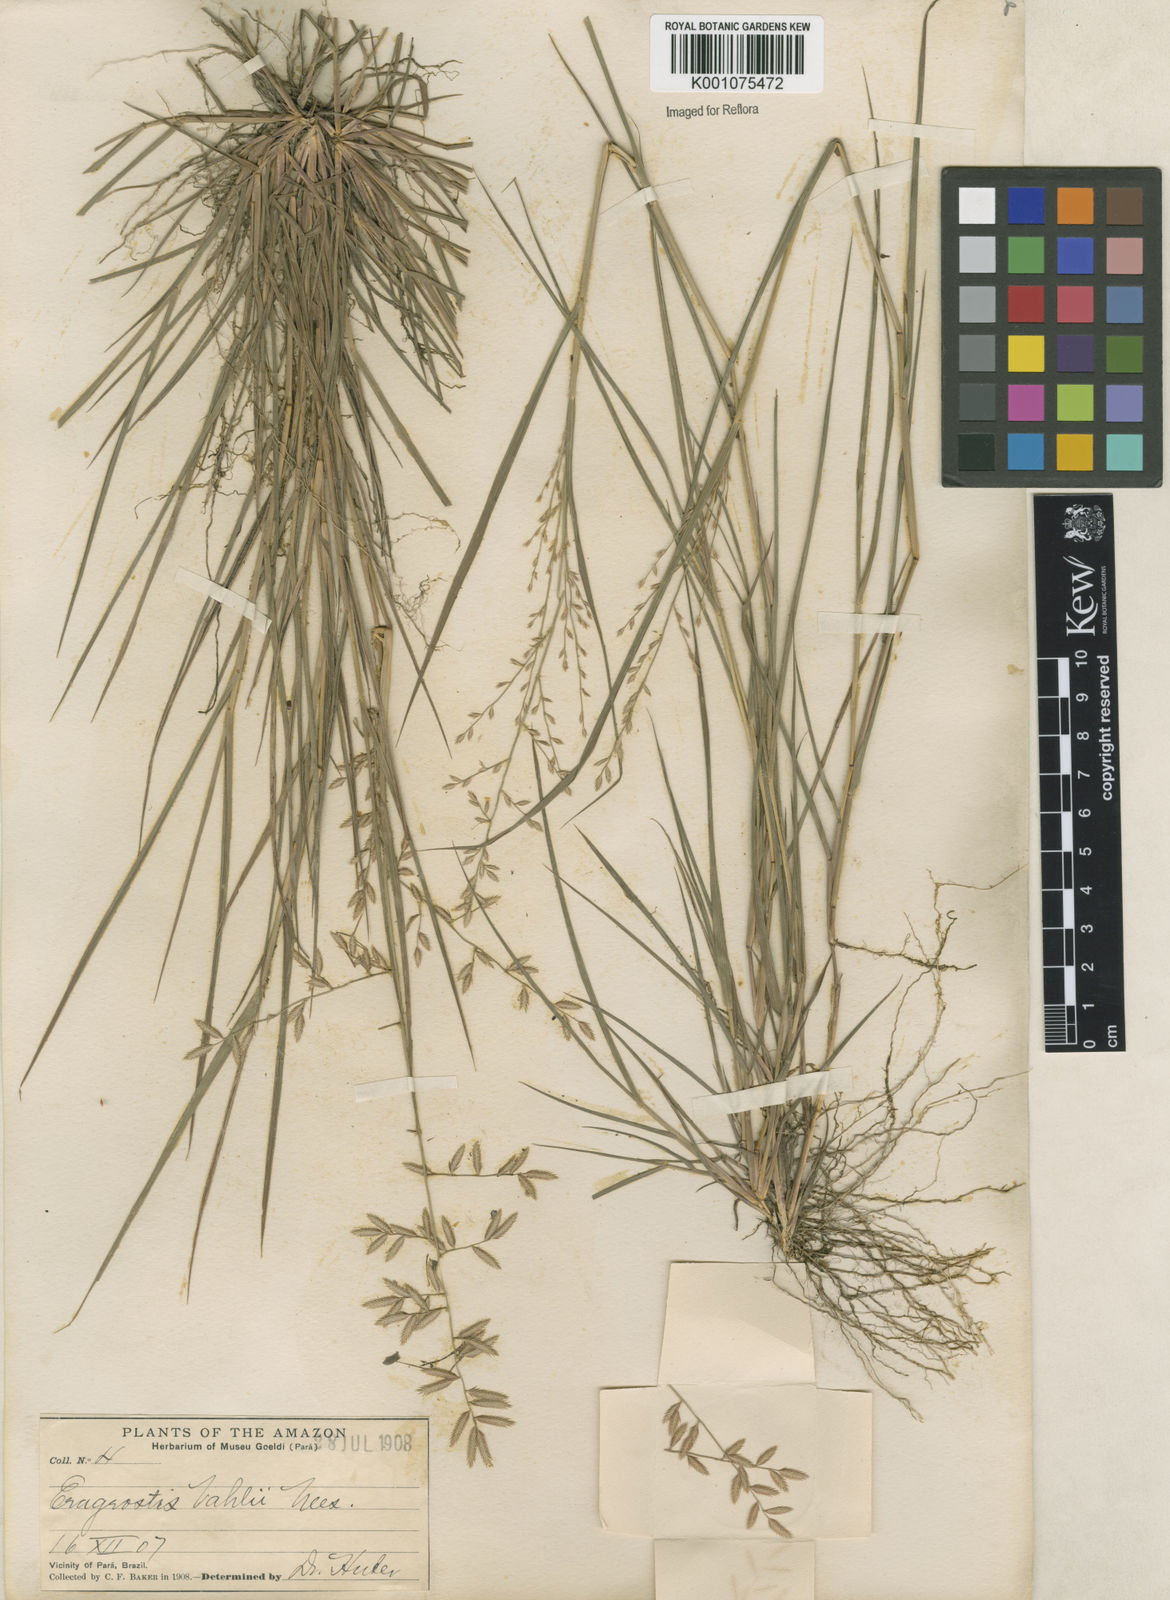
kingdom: Plantae
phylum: Tracheophyta
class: Liliopsida
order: Poales
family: Poaceae
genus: Eragrostis
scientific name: Eragrostis maypurensis
